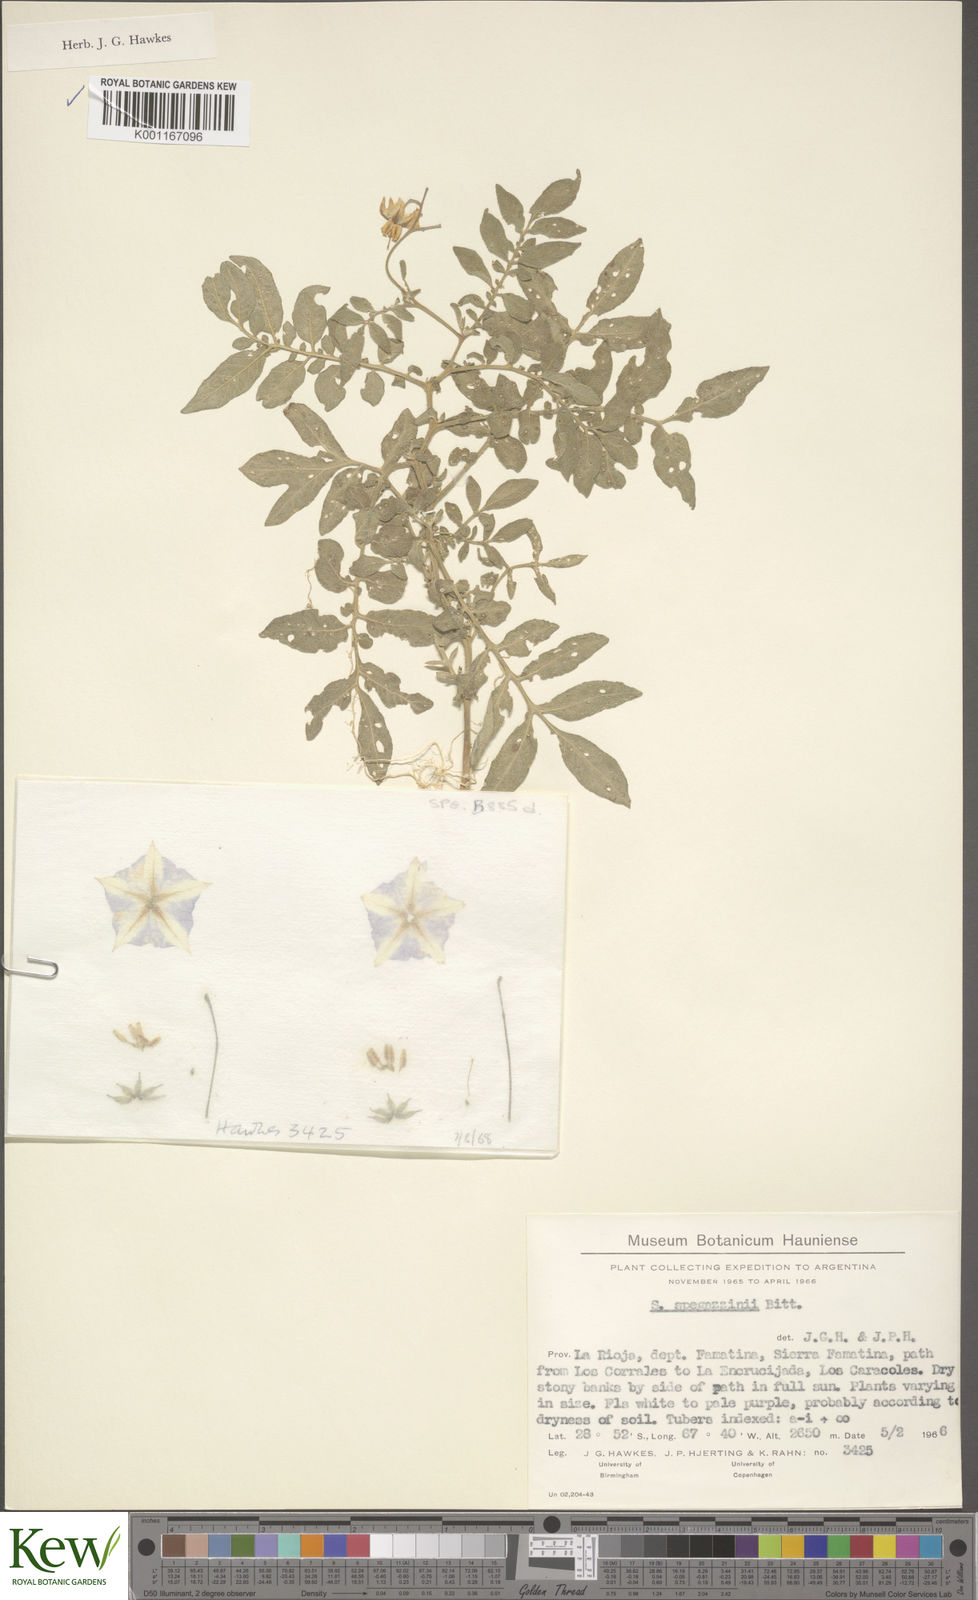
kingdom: Plantae
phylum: Tracheophyta
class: Magnoliopsida
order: Solanales
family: Solanaceae
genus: Solanum
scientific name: Solanum brevicaule
